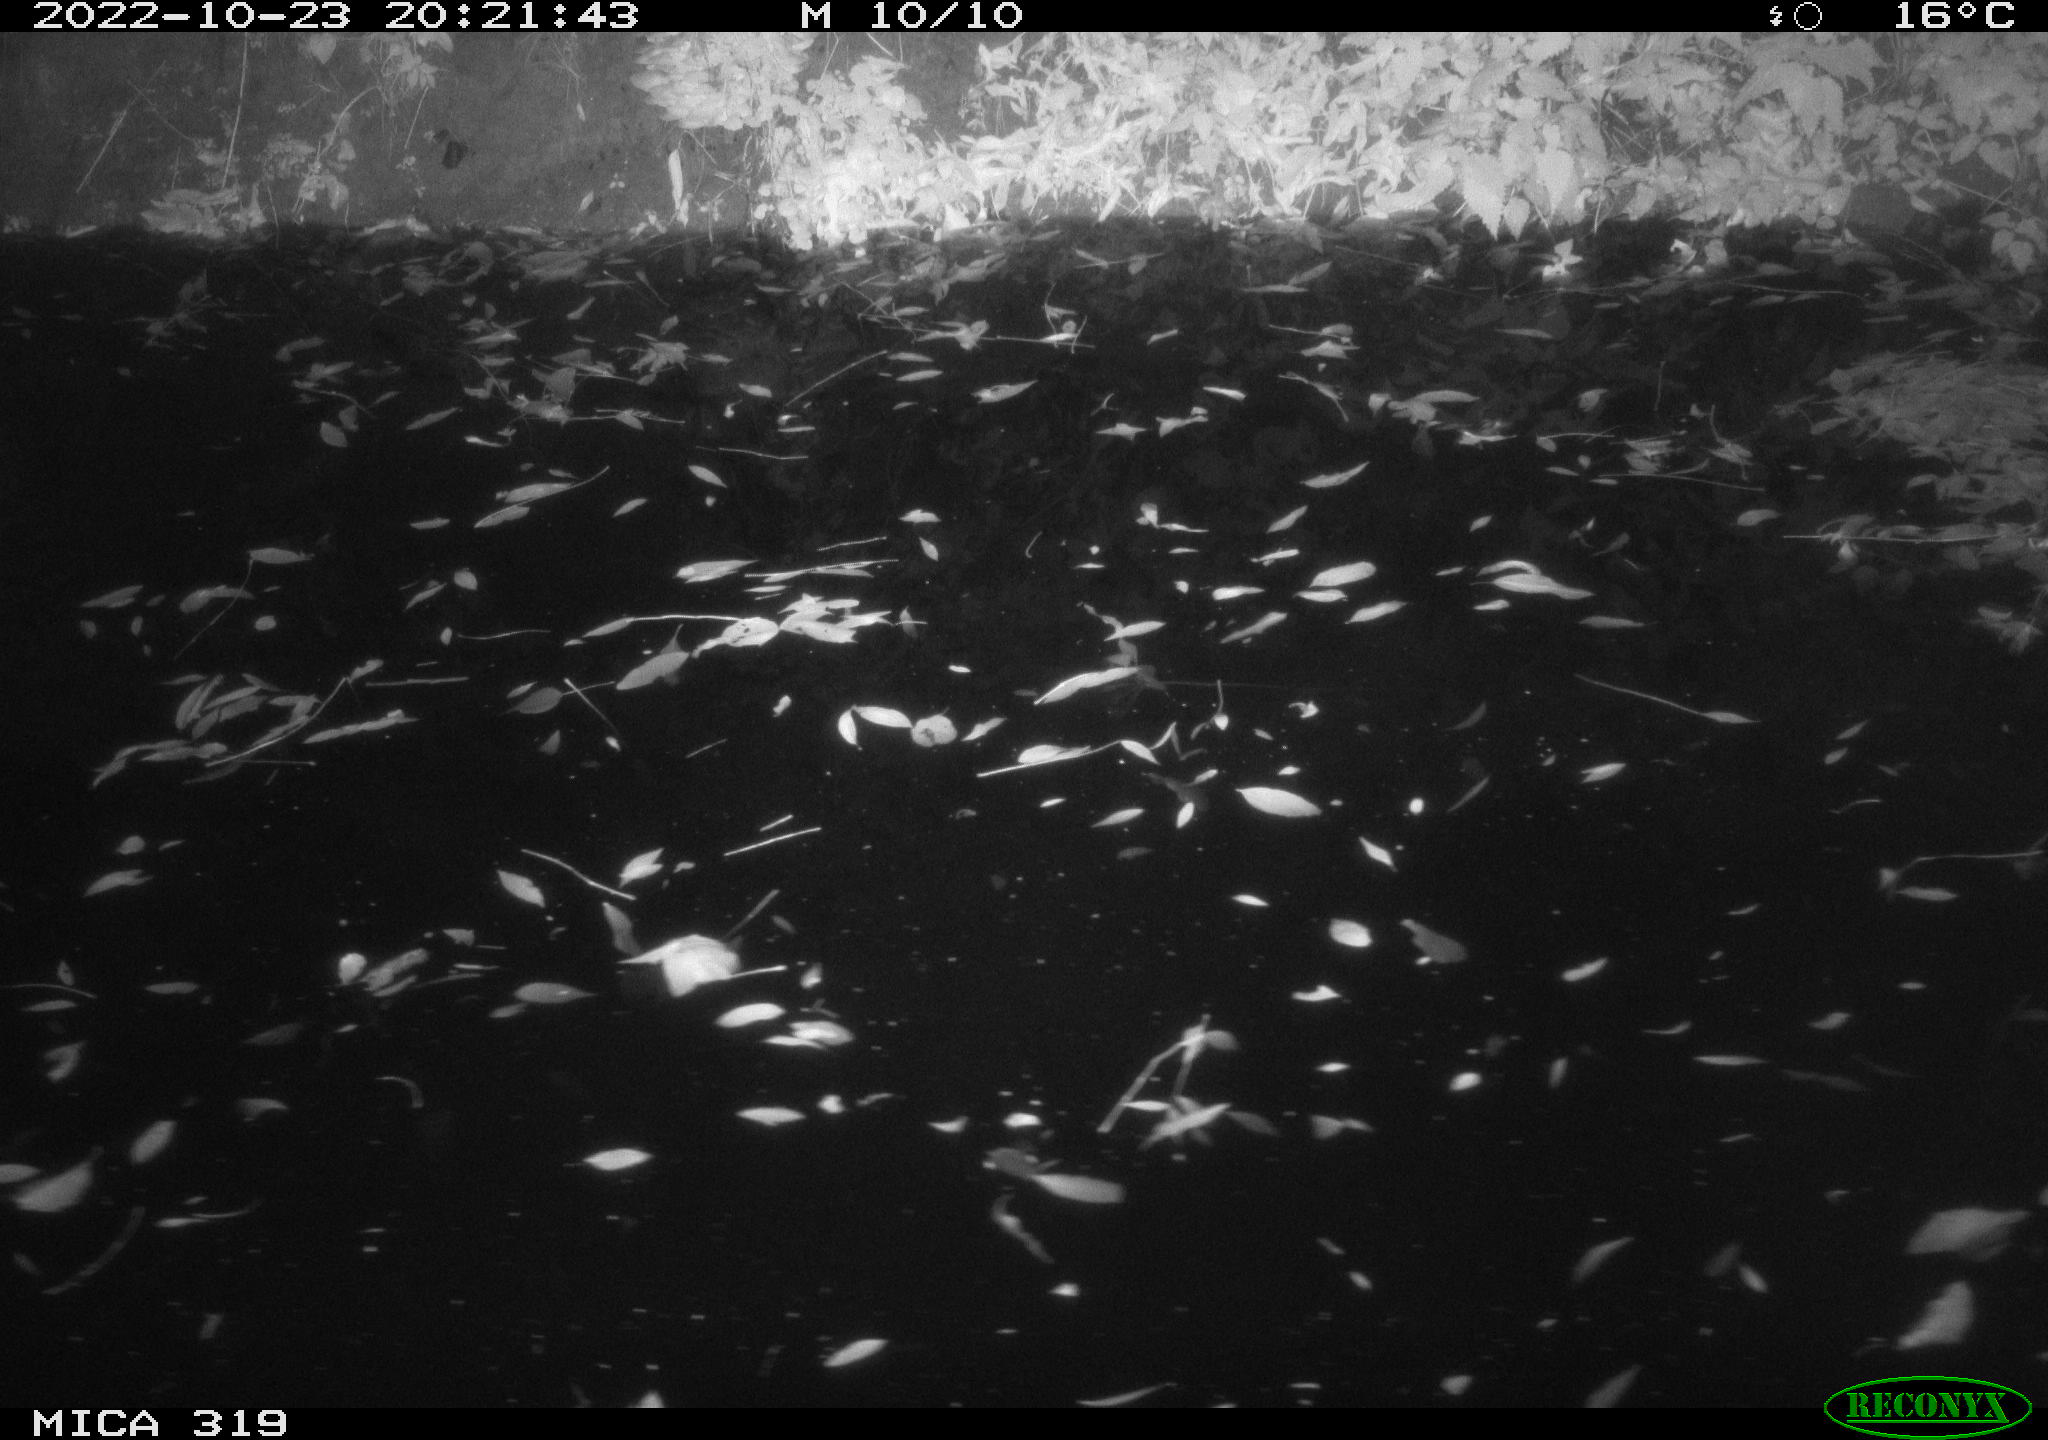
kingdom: Animalia
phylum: Chordata
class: Aves
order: Gruiformes
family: Rallidae
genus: Gallinula
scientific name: Gallinula chloropus
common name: Common moorhen
